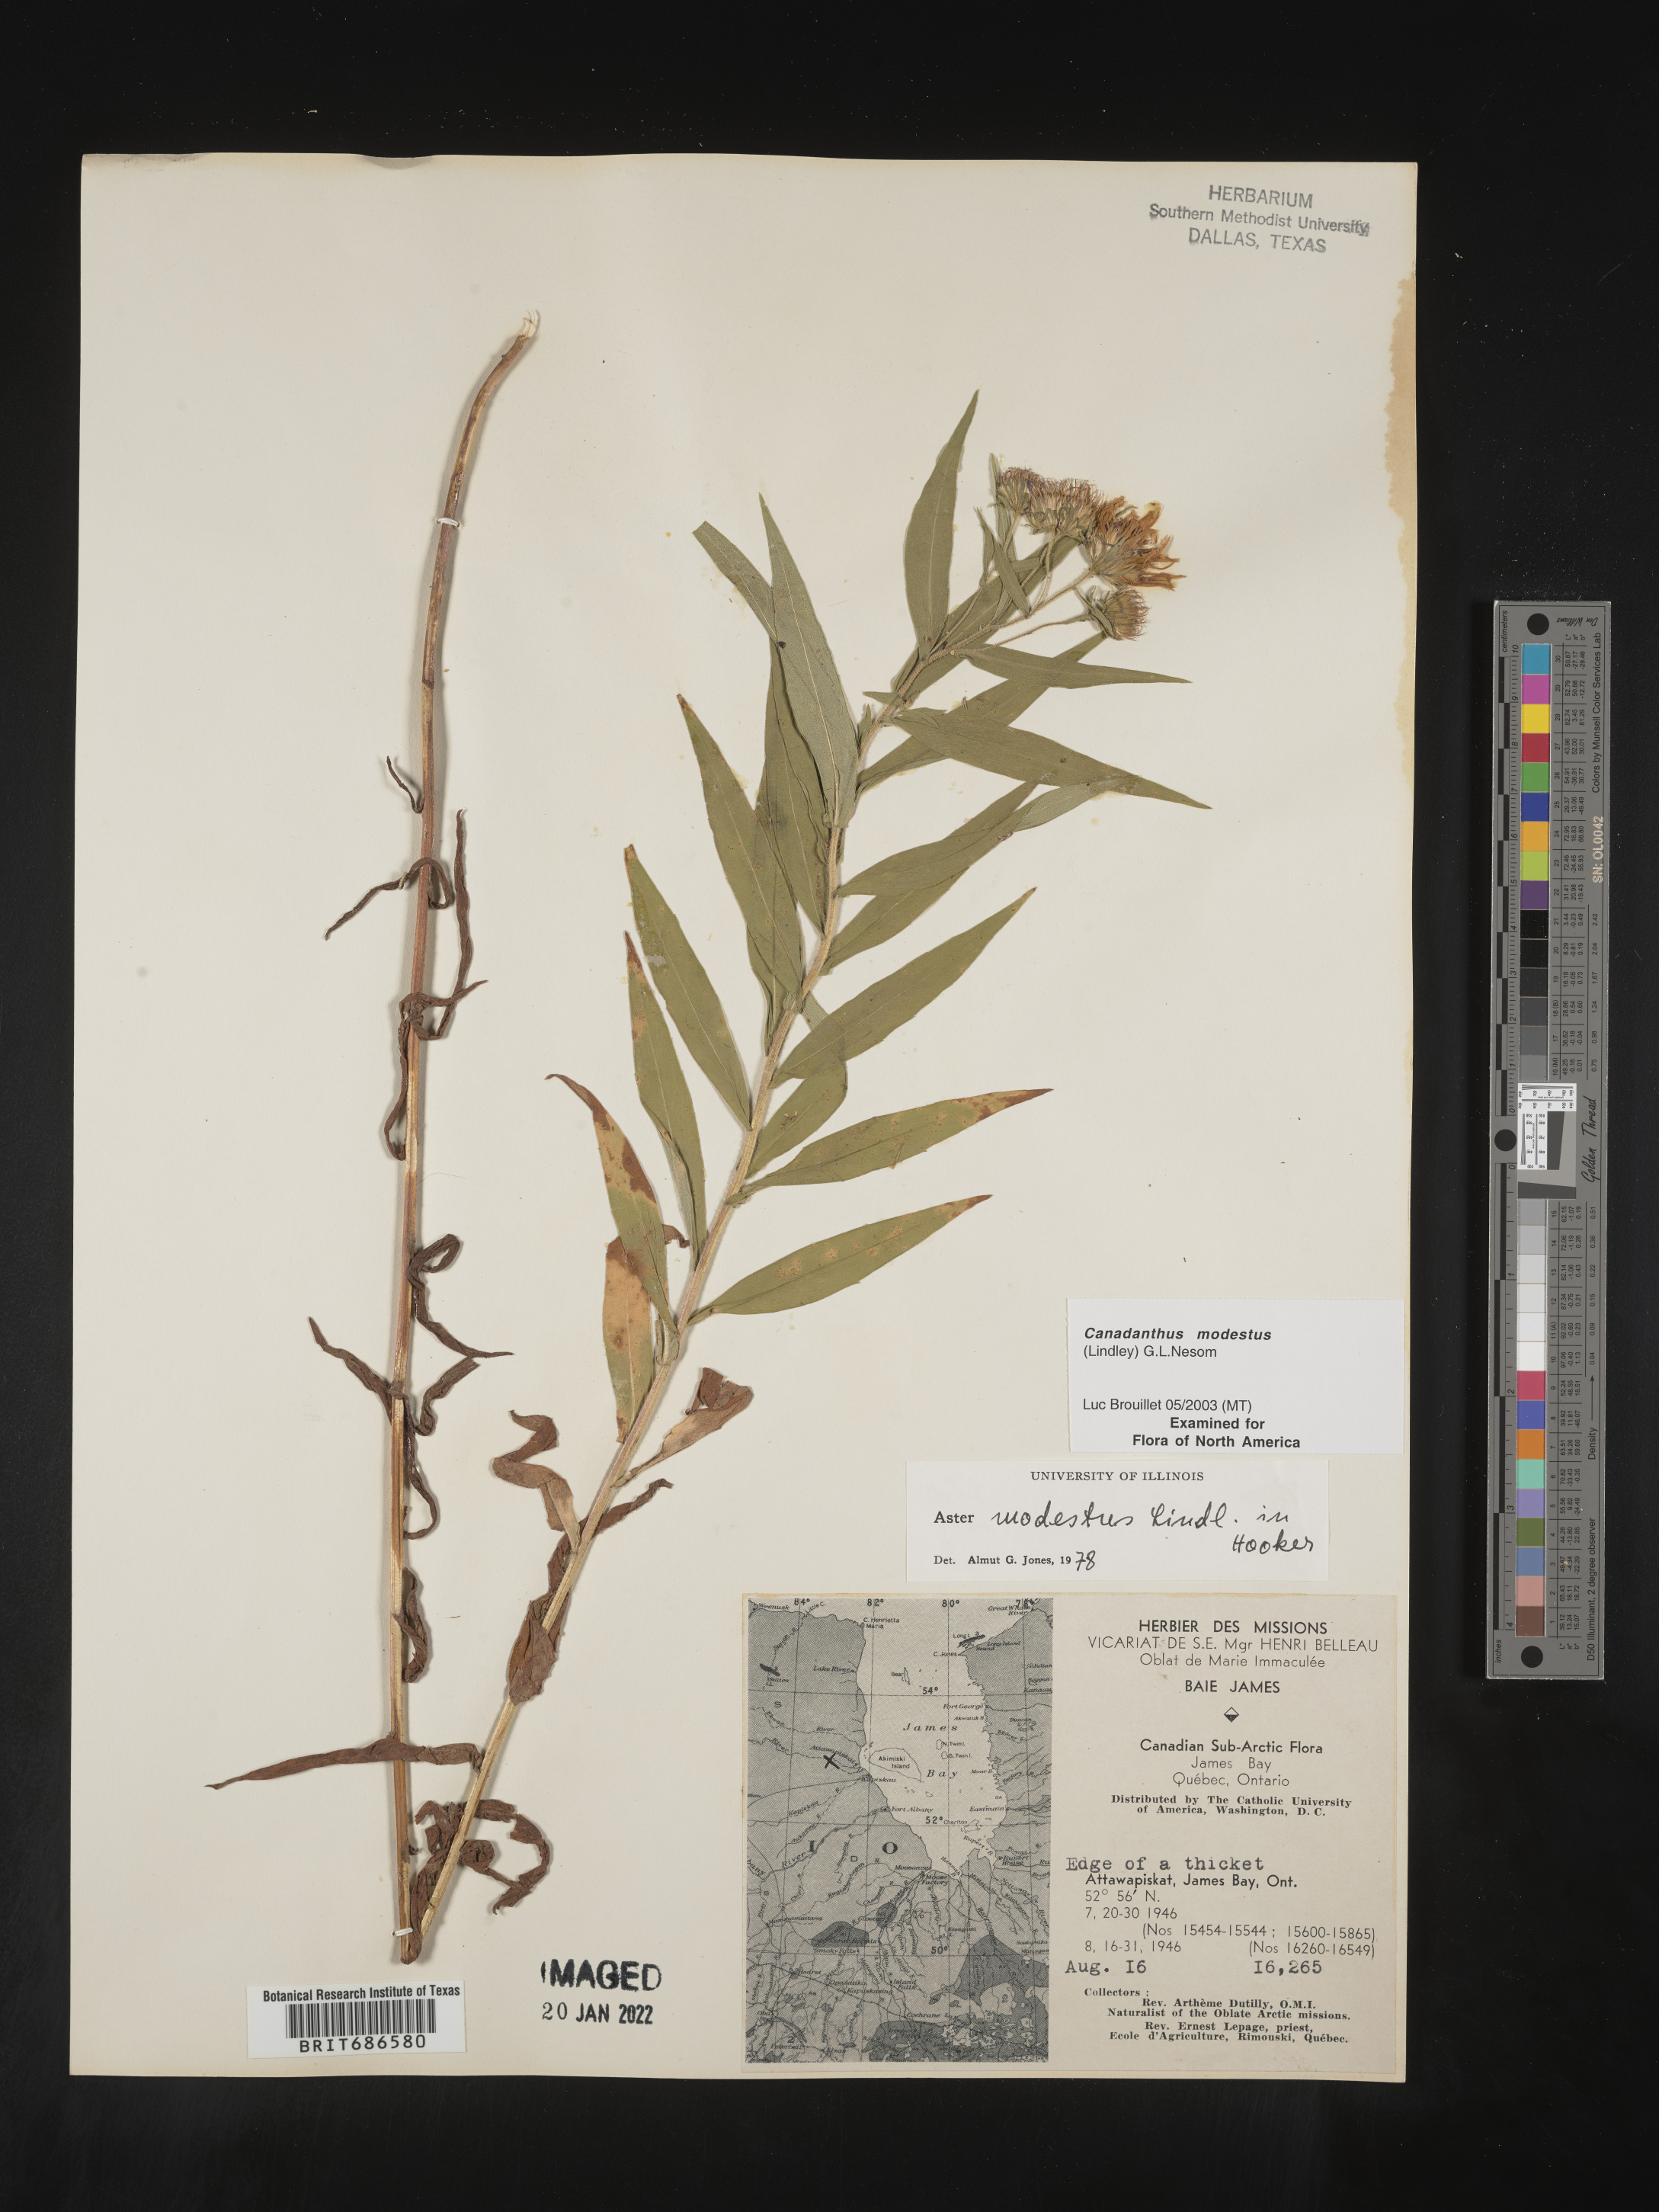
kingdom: Plantae
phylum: Tracheophyta
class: Magnoliopsida
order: Asterales
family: Asteraceae
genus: Canadanthus
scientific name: Canadanthus modestus
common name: Great northern aster
